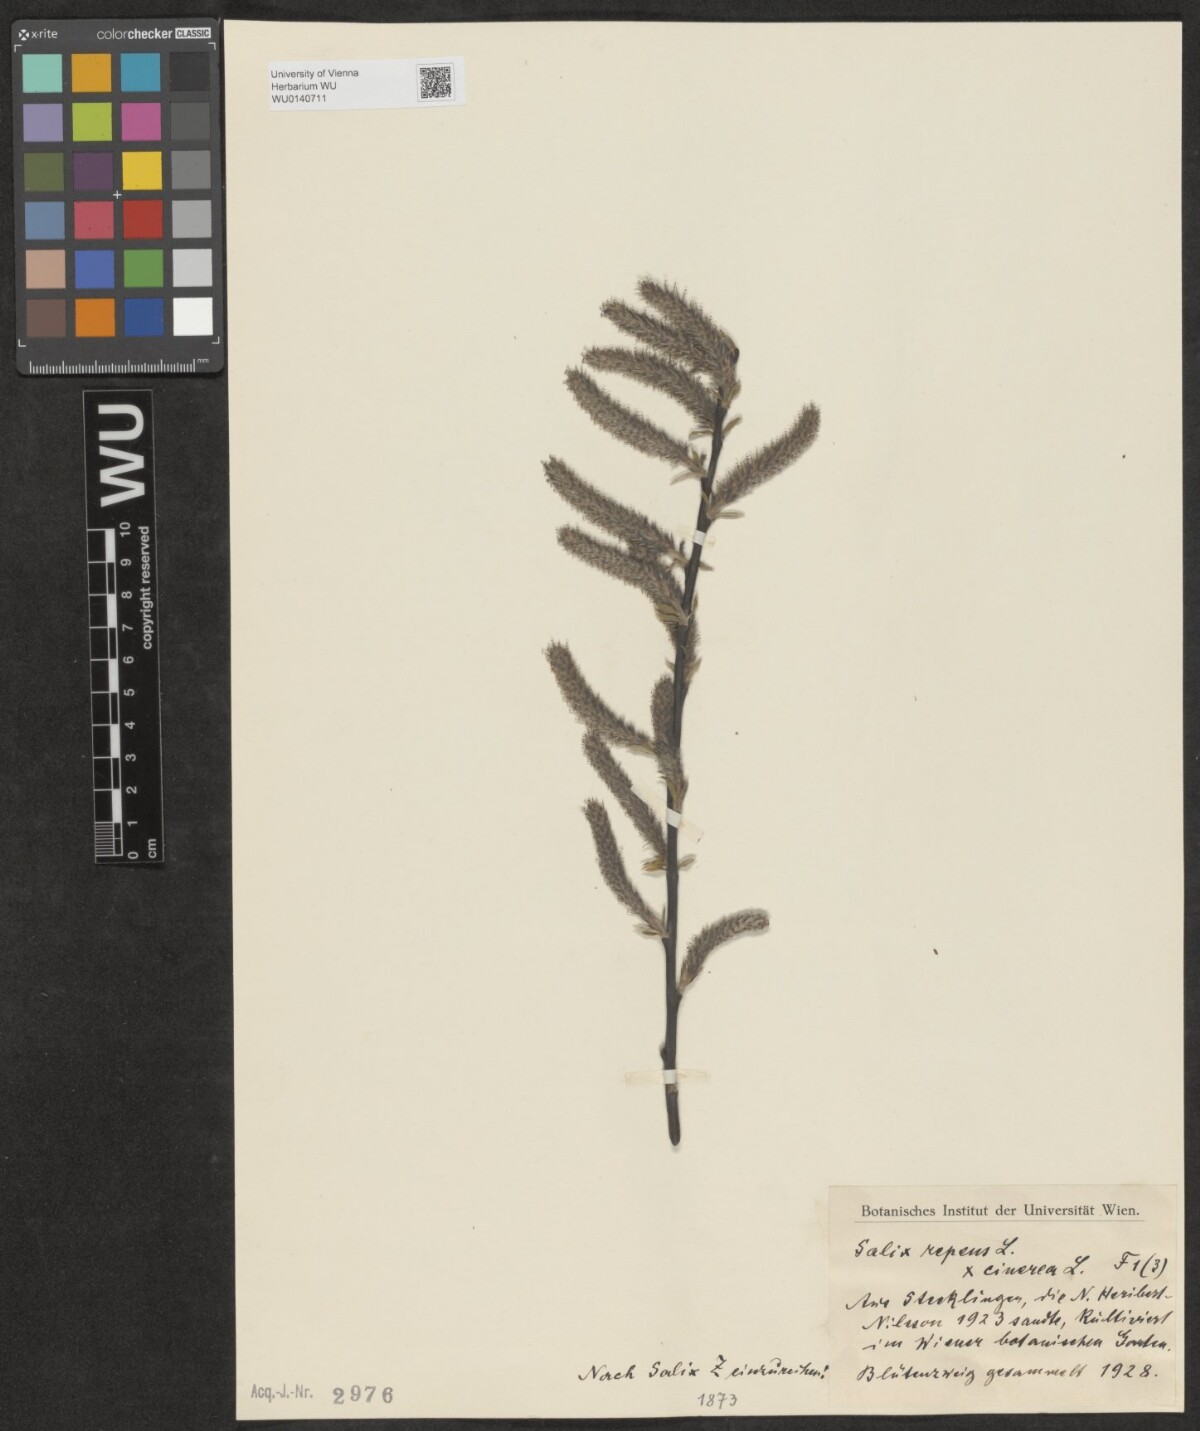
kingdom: Plantae
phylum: Tracheophyta
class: Magnoliopsida
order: Malpighiales
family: Salicaceae
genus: Salix
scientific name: Salix
